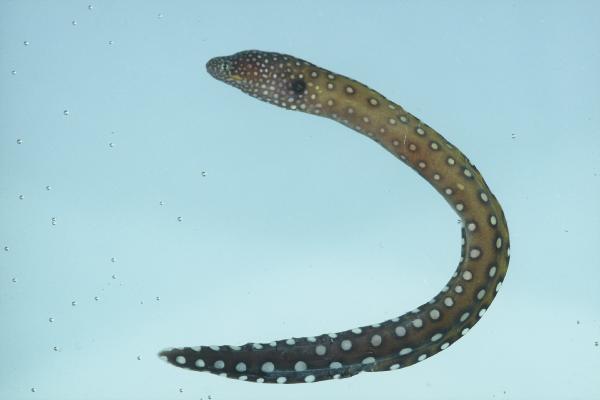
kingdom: Animalia
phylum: Chordata
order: Anguilliformes
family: Muraenidae
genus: Gymnothorax
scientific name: Gymnothorax nudivomer
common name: Yellowmouth moray
